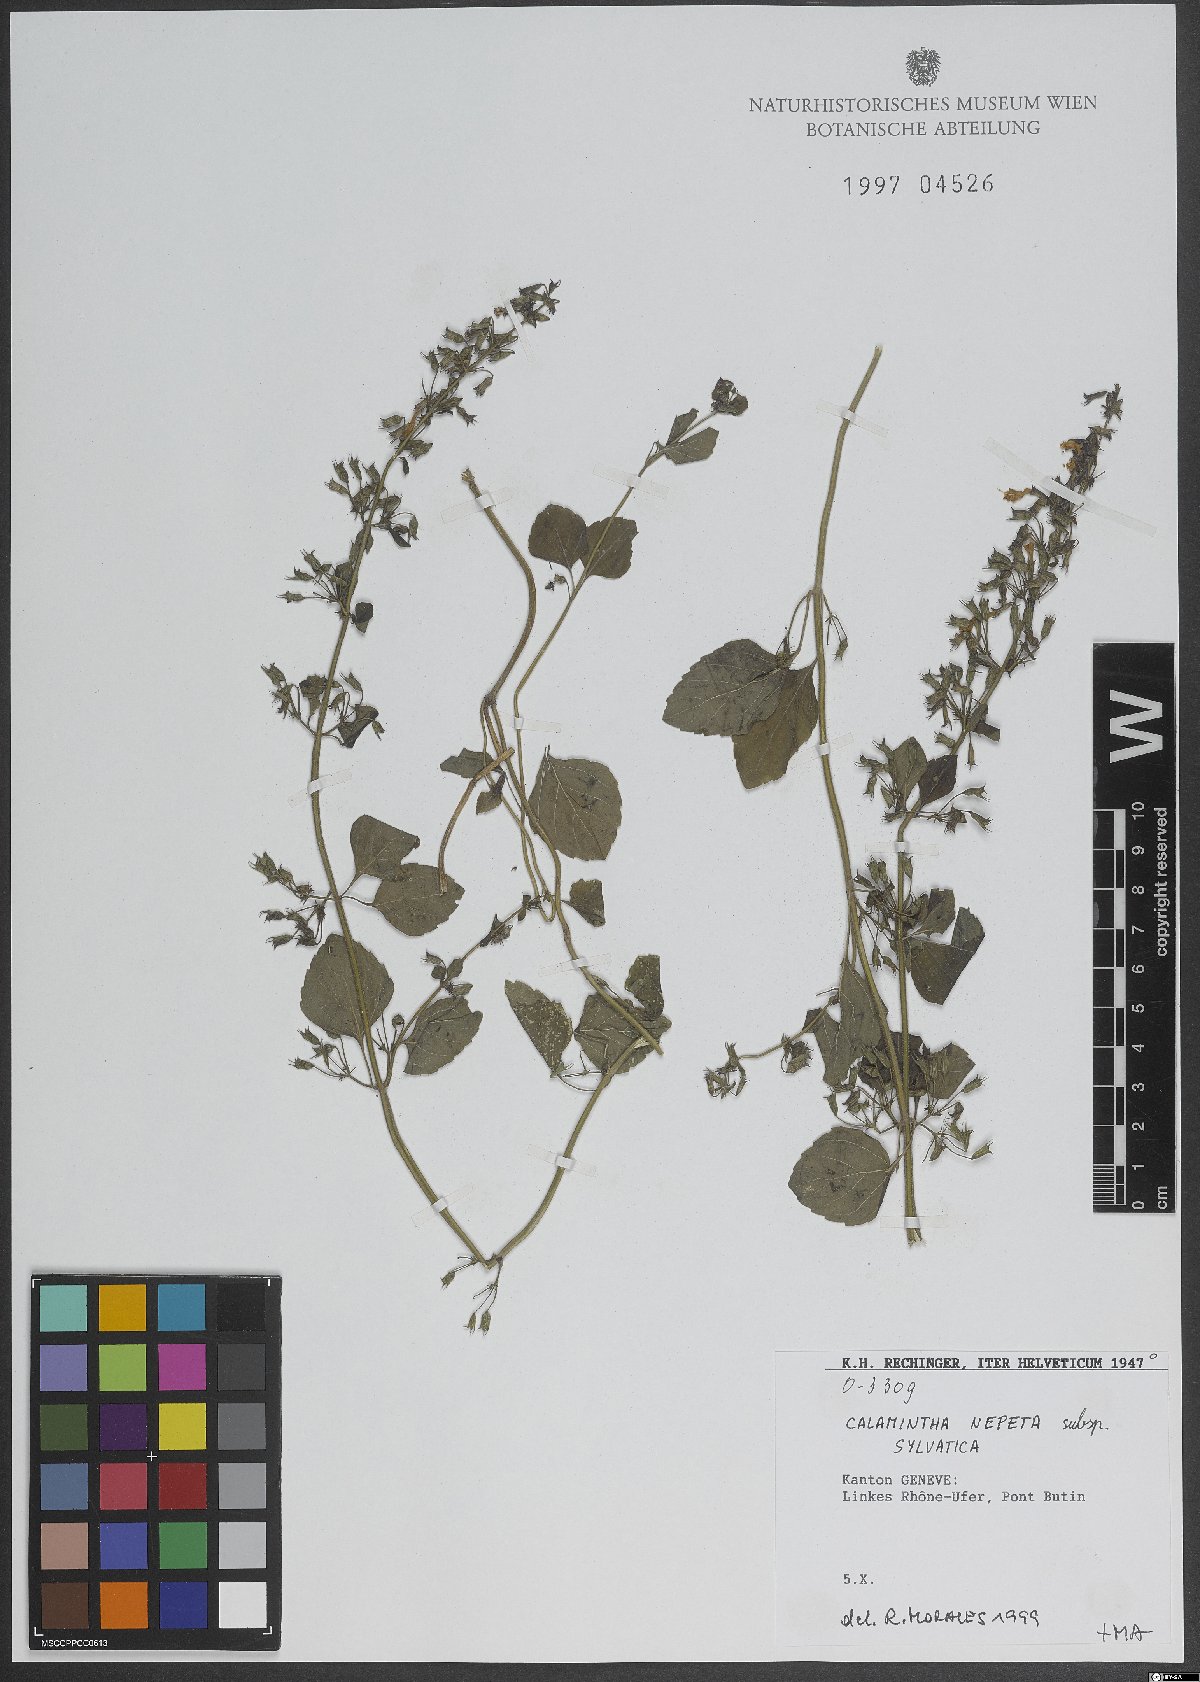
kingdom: Plantae
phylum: Tracheophyta
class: Magnoliopsida
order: Lamiales
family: Lamiaceae
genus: Clinopodium
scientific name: Clinopodium nepeta
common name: Lesser calamint
